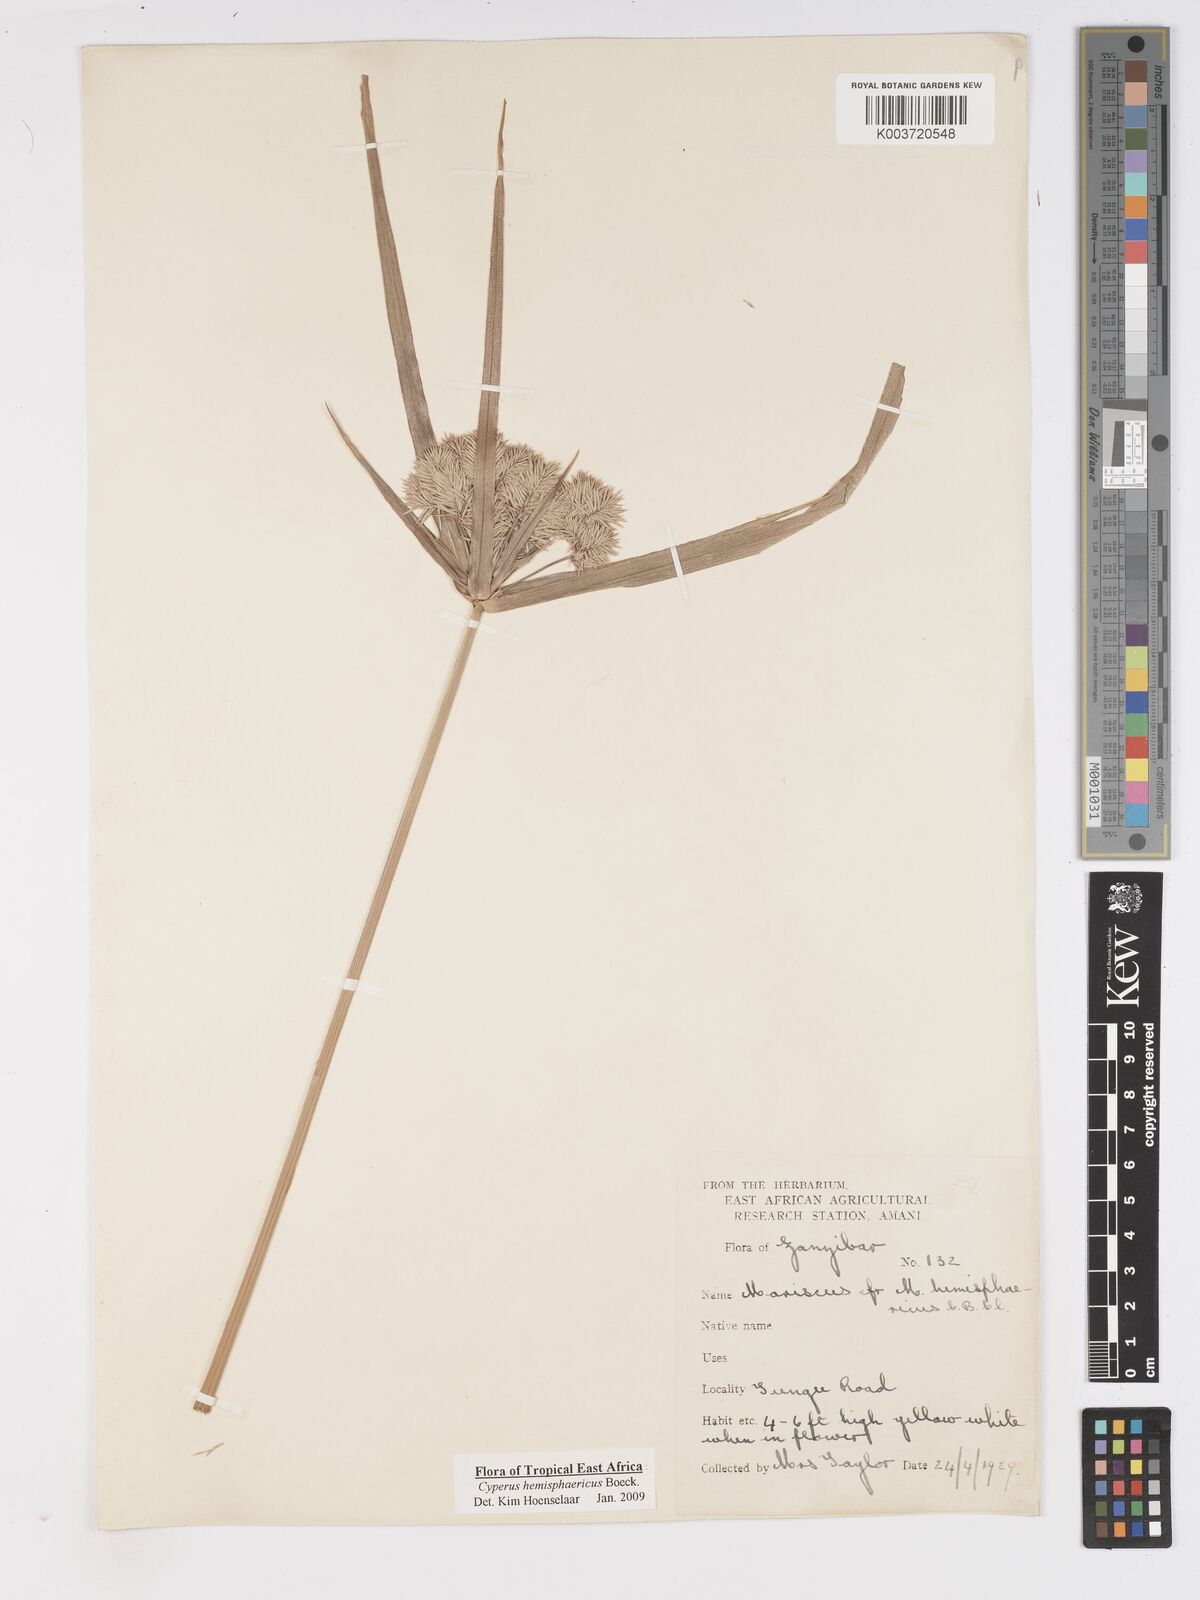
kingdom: Plantae
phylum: Tracheophyta
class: Liliopsida
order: Poales
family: Cyperaceae
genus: Cyperus
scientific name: Cyperus hemisphaericus
